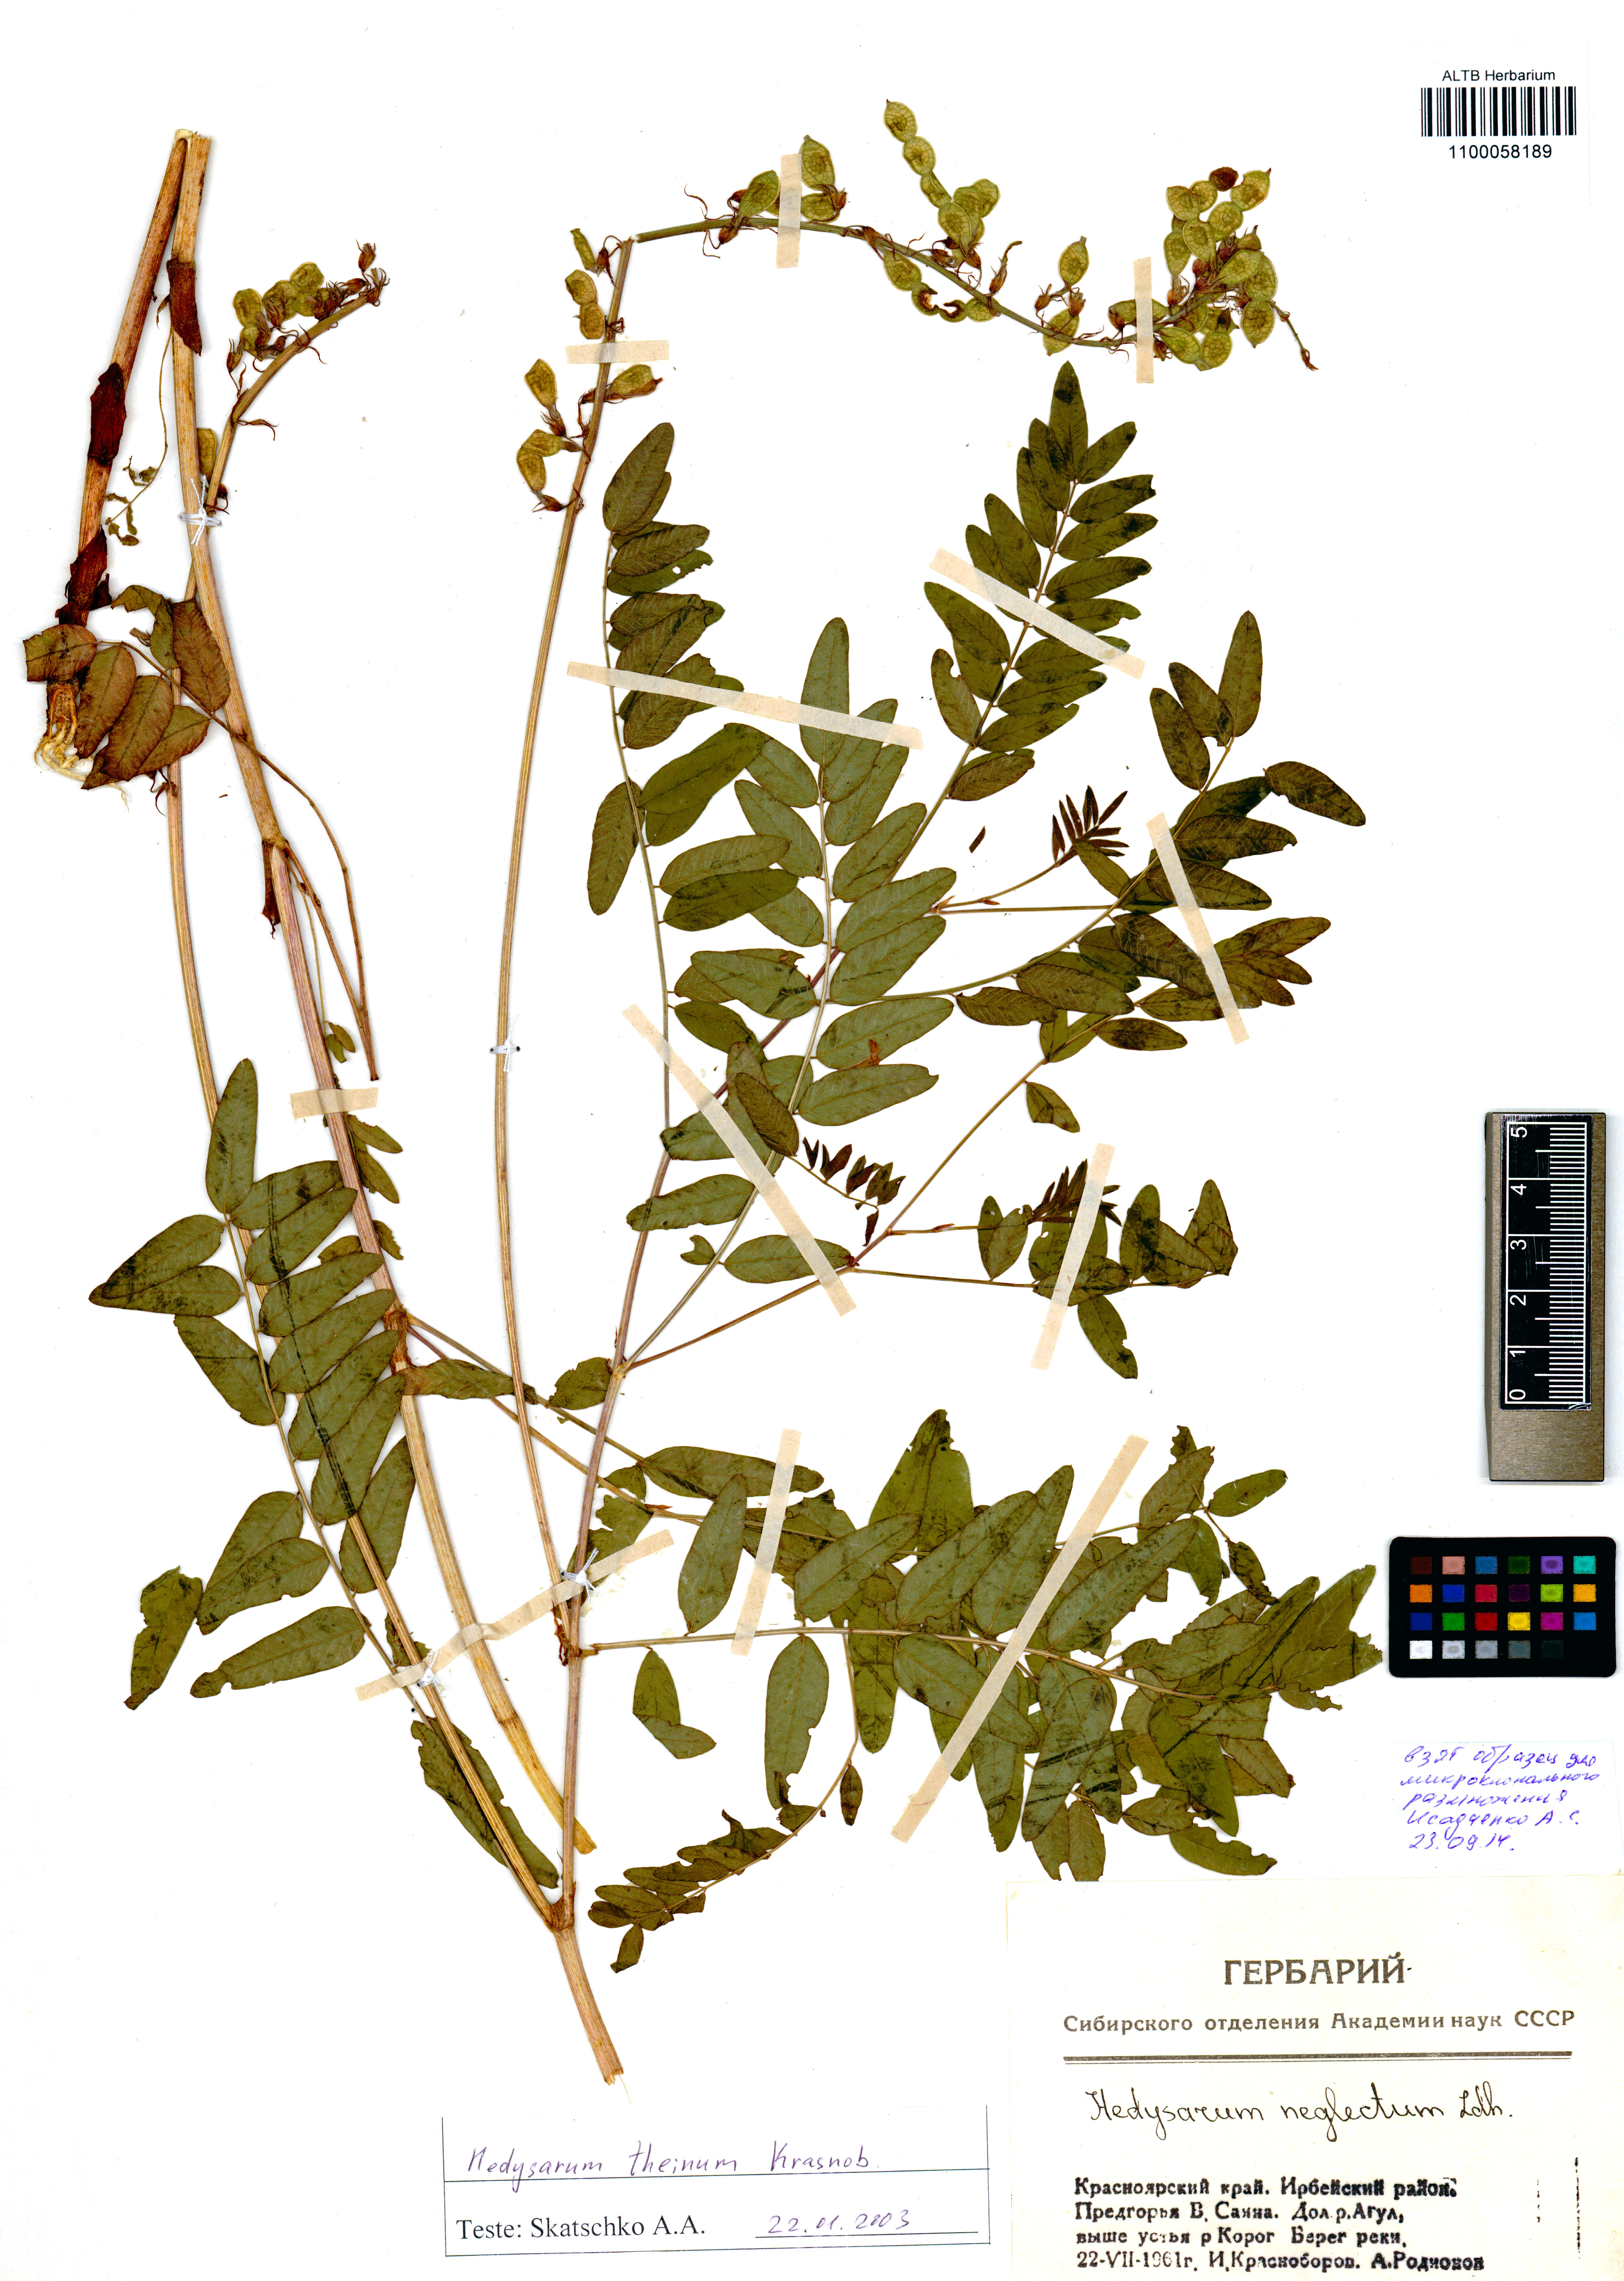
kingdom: Plantae
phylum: Tracheophyta
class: Magnoliopsida
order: Fabales
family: Fabaceae
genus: Hedysarum
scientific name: Hedysarum theinum
